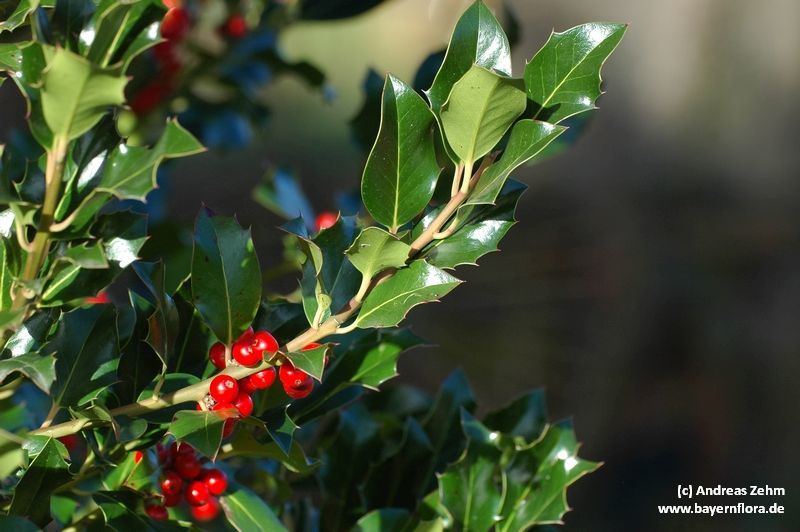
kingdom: Plantae
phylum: Tracheophyta
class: Magnoliopsida
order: Aquifoliales
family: Aquifoliaceae
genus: Ilex
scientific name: Ilex aquifolium
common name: English holly
